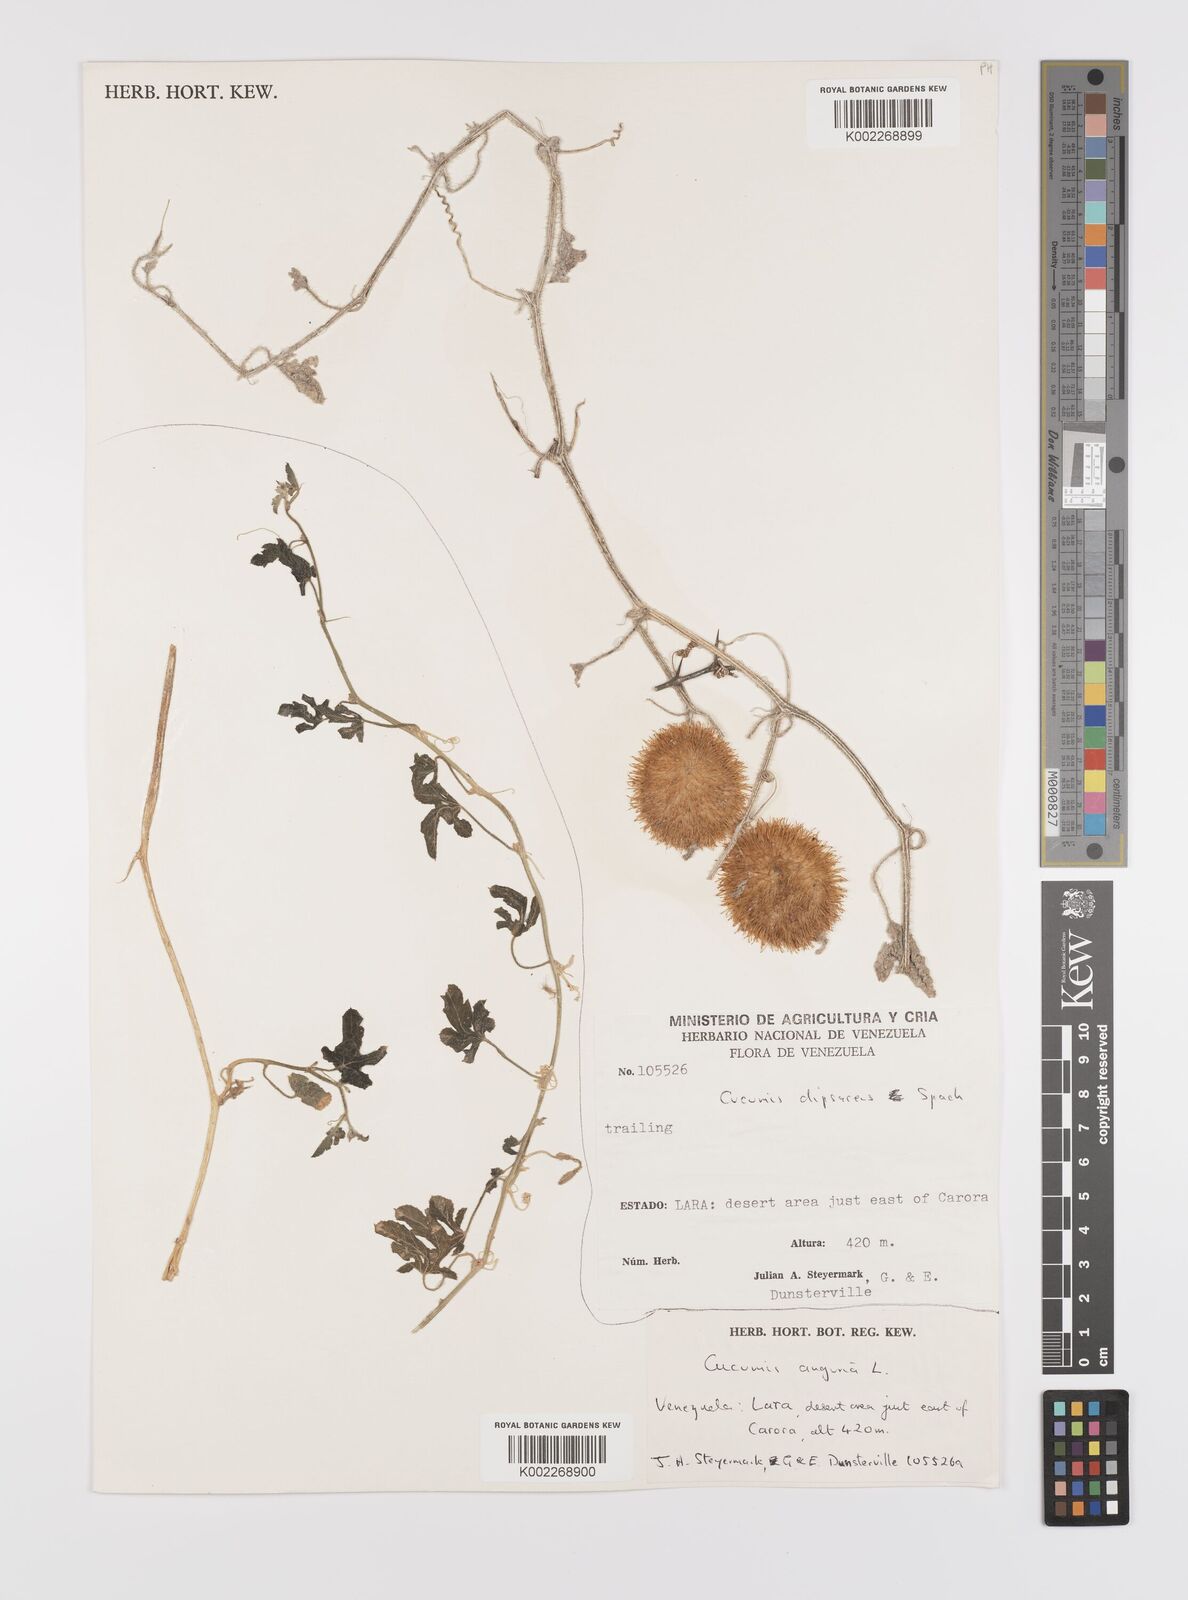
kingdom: Plantae
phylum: Tracheophyta
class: Magnoliopsida
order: Cucurbitales
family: Cucurbitaceae
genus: Cucumis
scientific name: Cucumis
